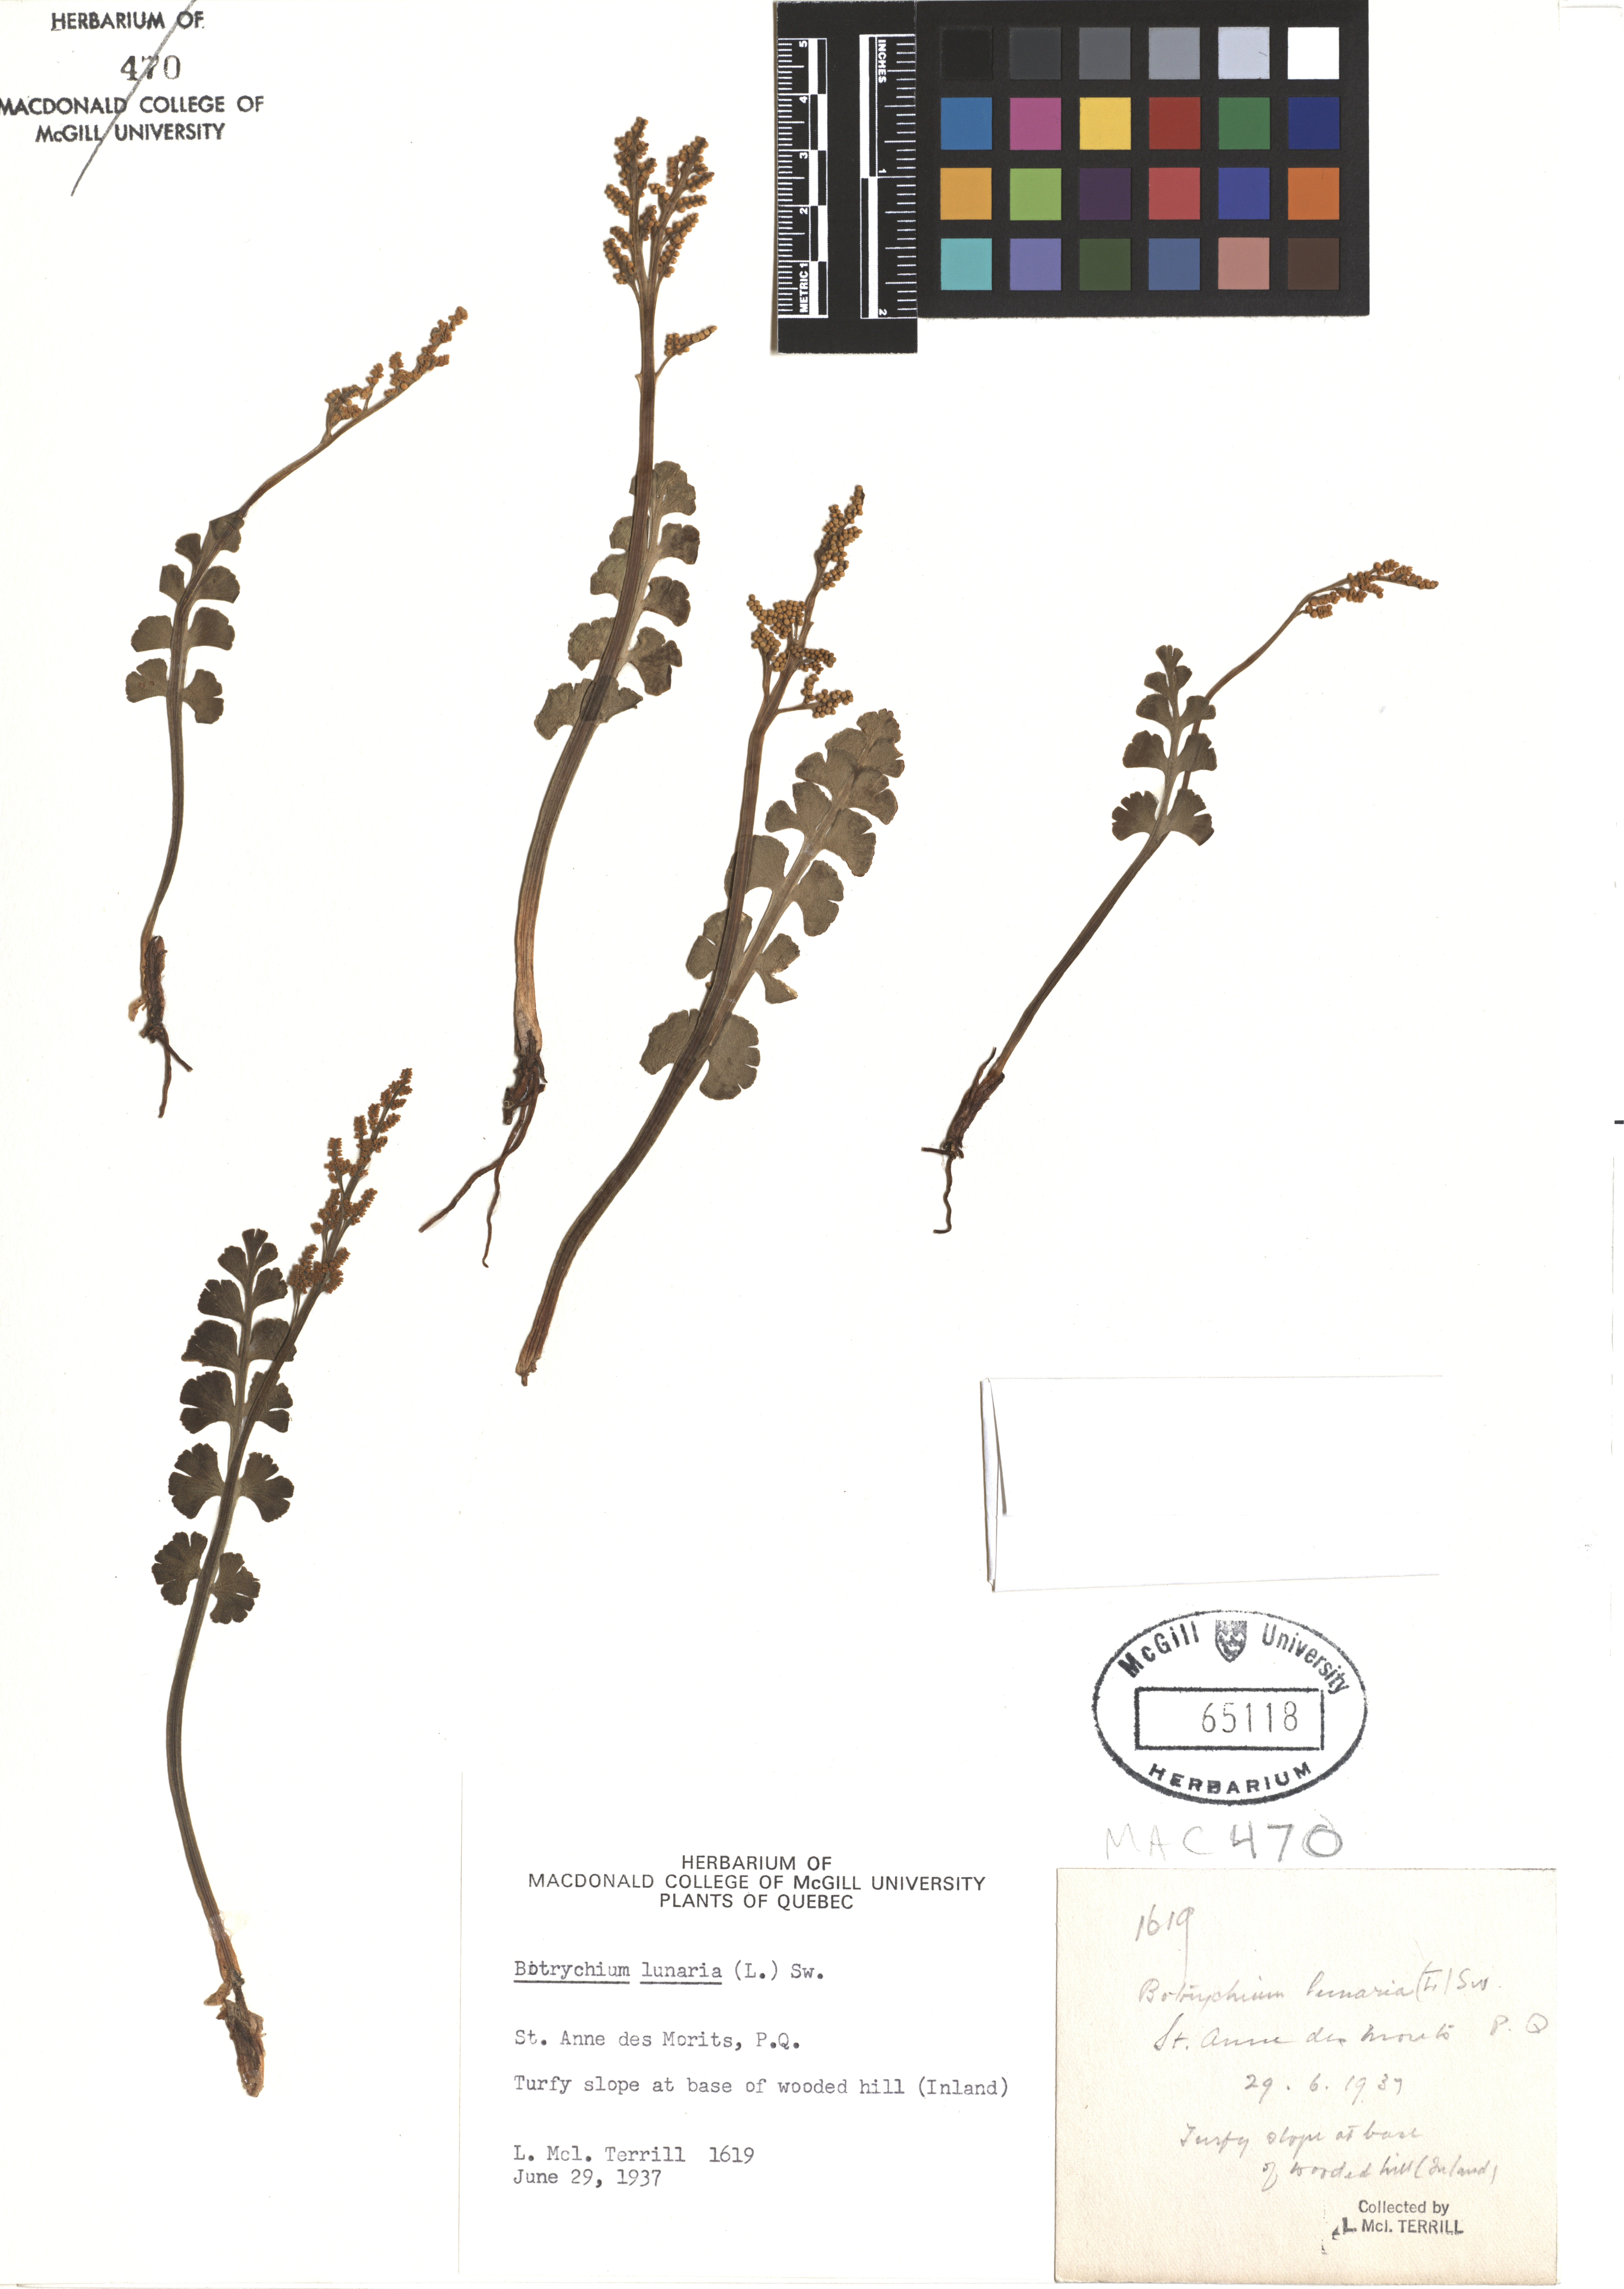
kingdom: Plantae
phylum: Tracheophyta
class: Polypodiopsida
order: Ophioglossales
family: Ophioglossaceae
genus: Botrychium
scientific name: Botrychium lunaria
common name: Moonwort
